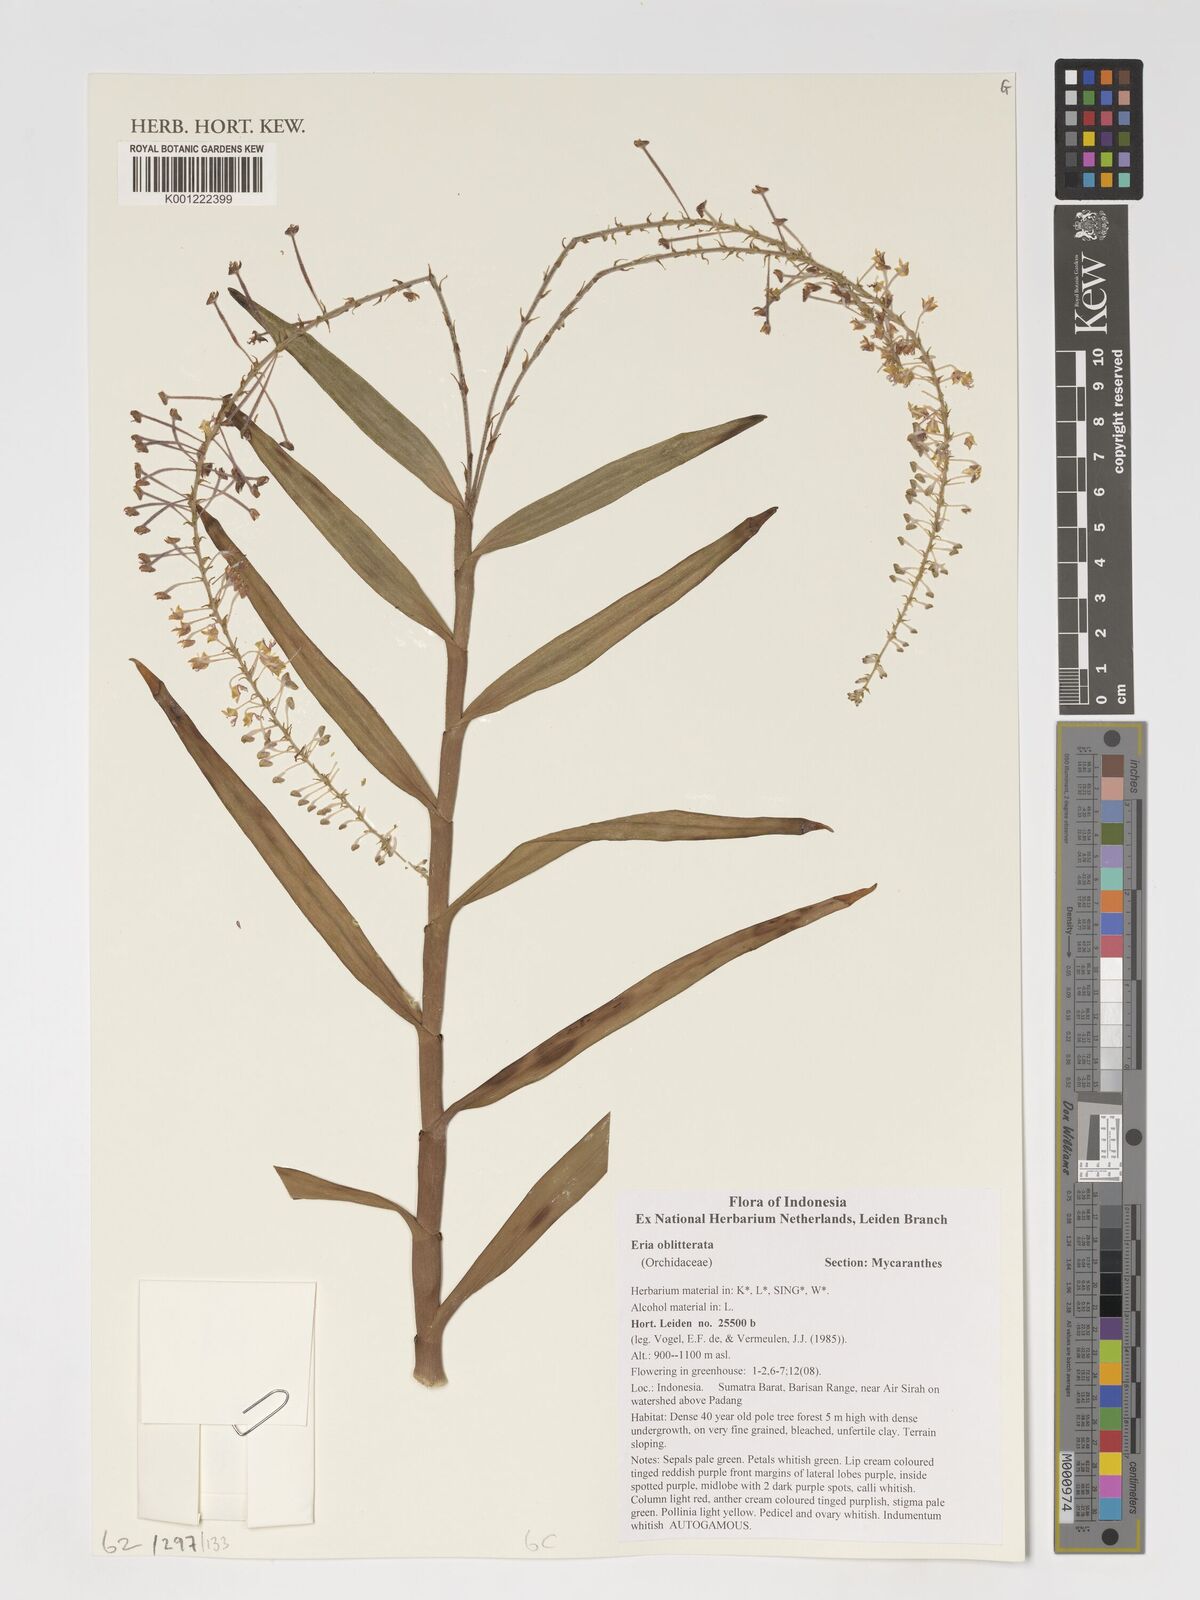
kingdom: Plantae
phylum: Tracheophyta
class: Liliopsida
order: Asparagales
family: Orchidaceae
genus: Mycaranthes
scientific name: Mycaranthes oblitterata
